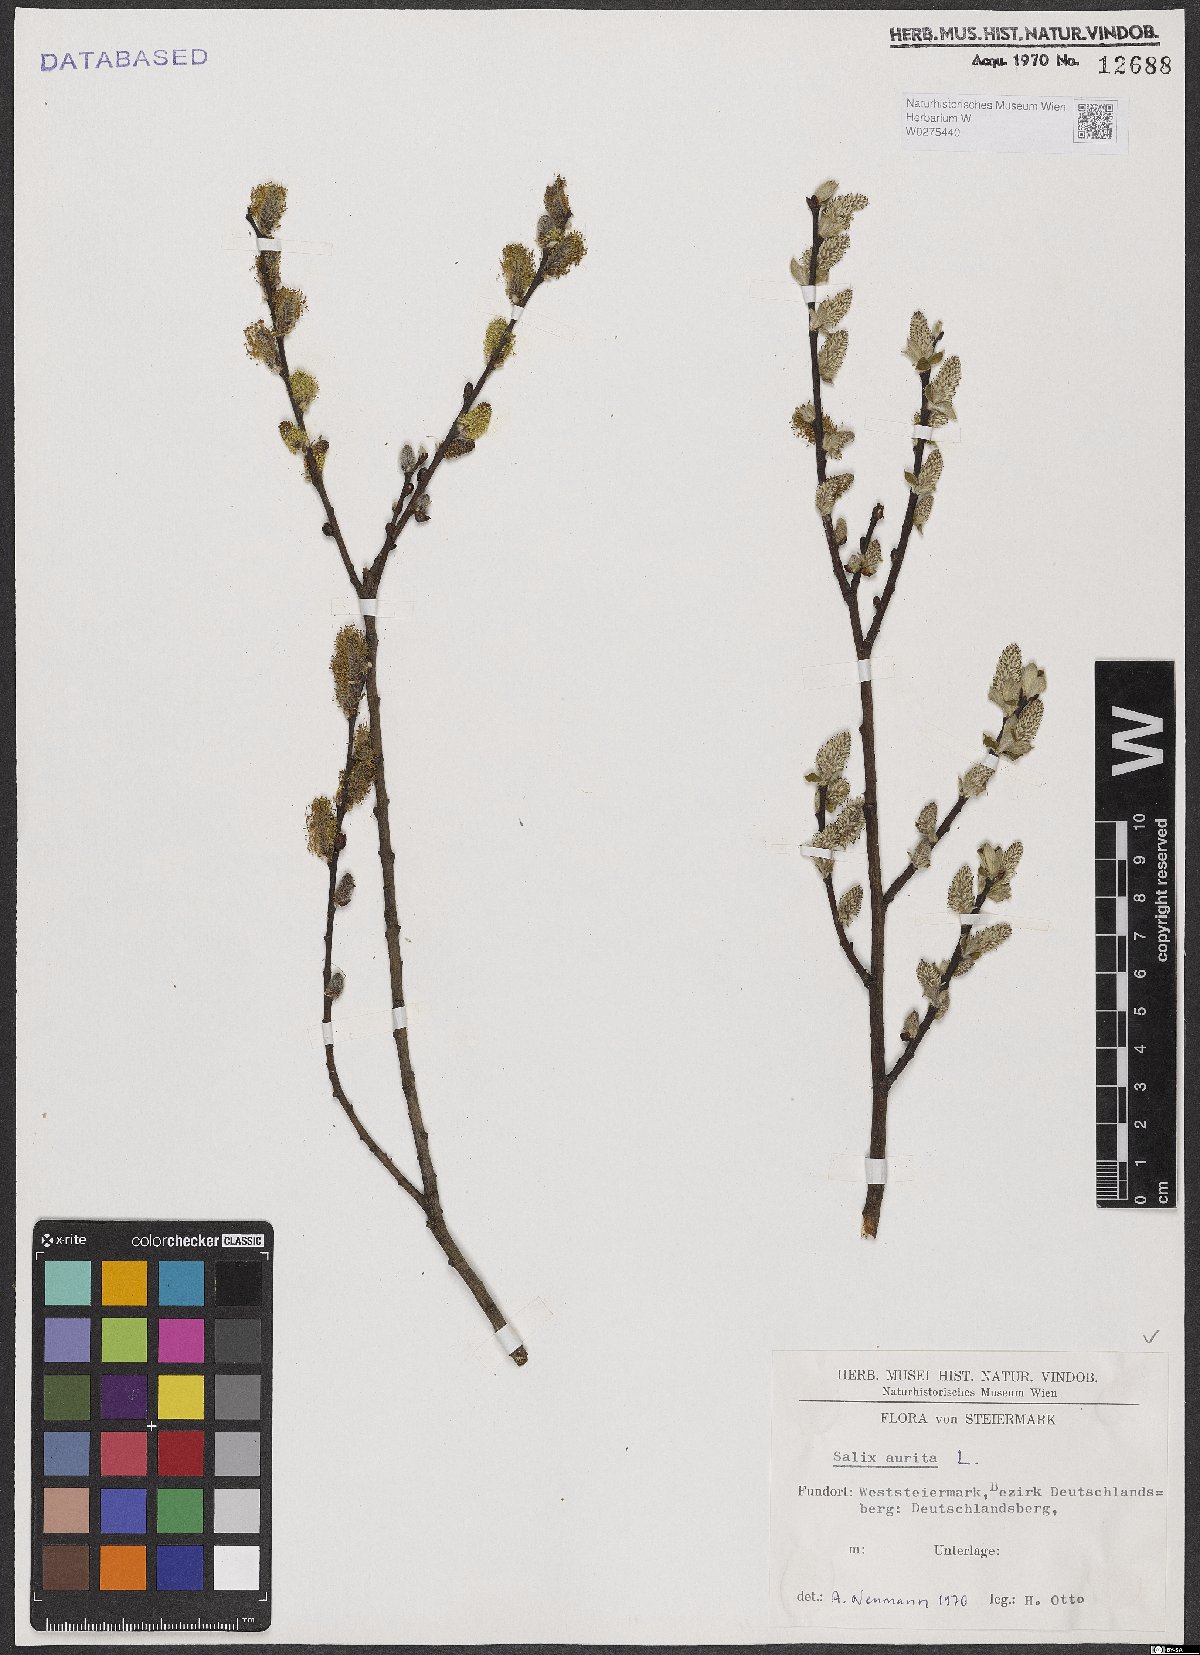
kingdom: Plantae
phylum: Tracheophyta
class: Magnoliopsida
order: Malpighiales
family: Salicaceae
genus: Salix
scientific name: Salix aurita
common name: Eared willow
